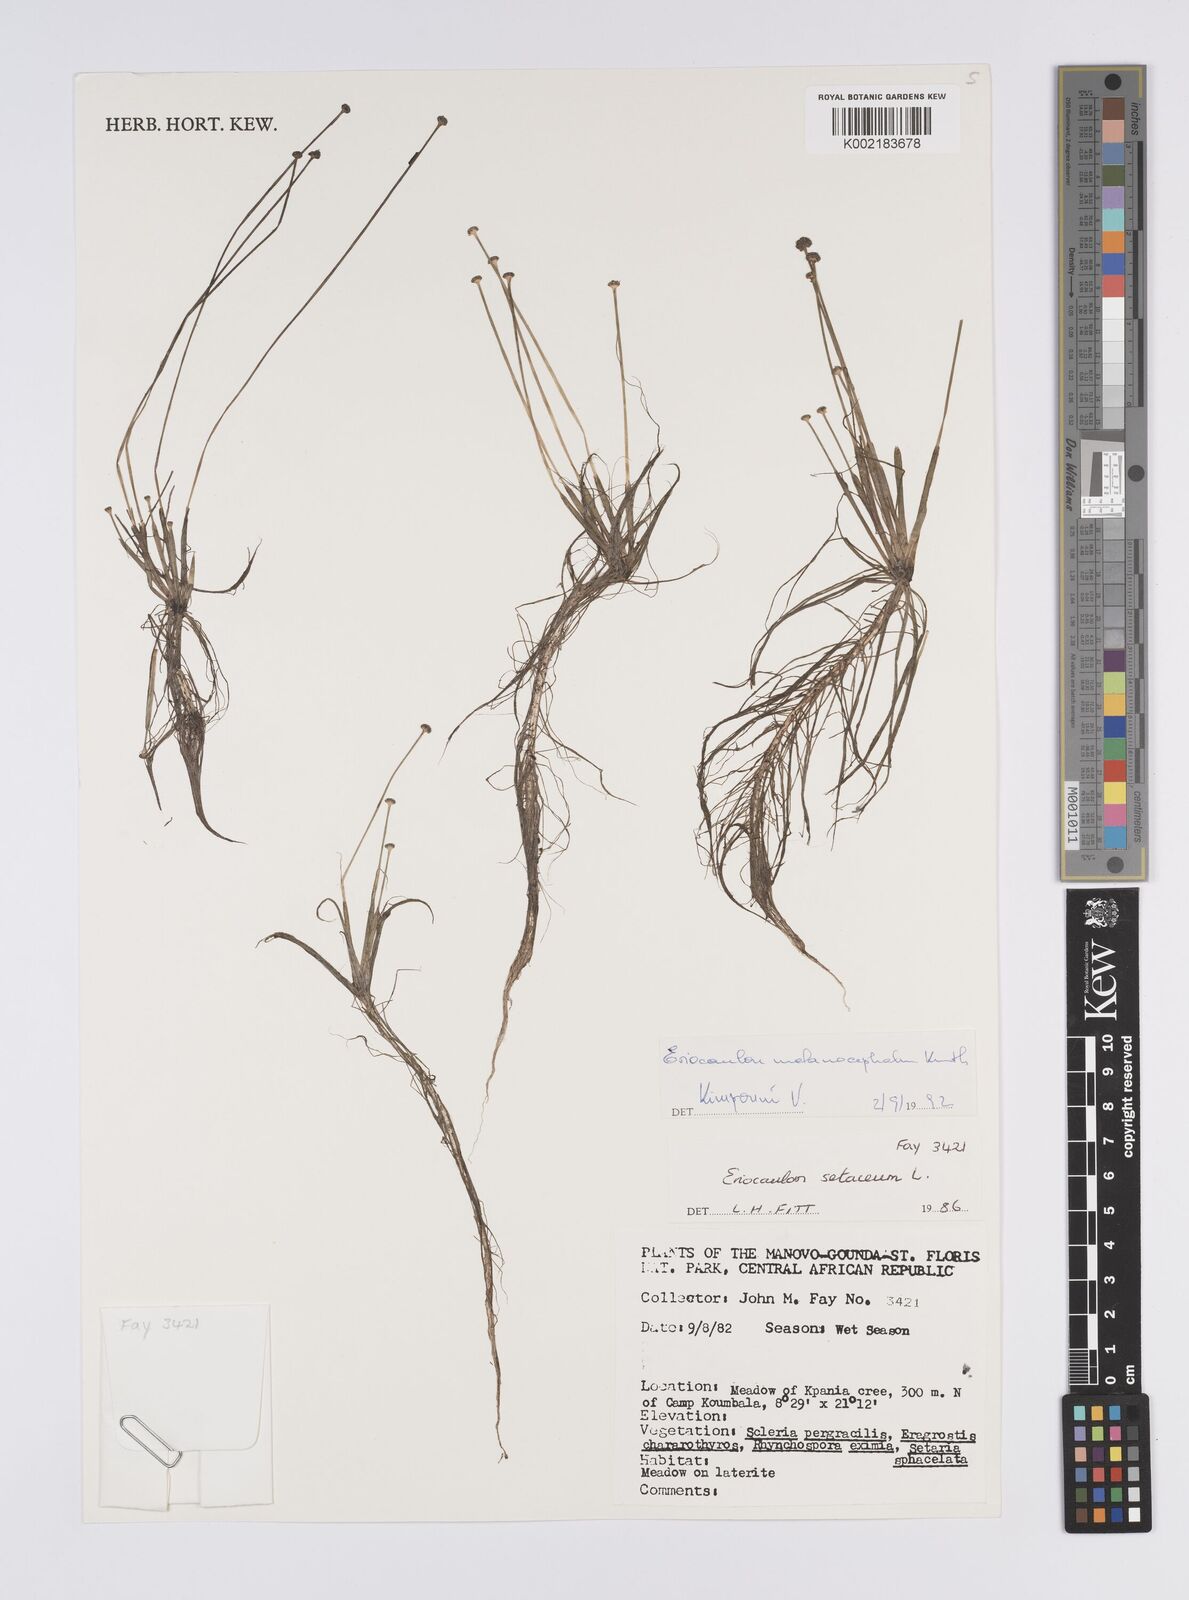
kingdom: Plantae
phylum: Tracheophyta
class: Liliopsida
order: Poales
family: Eriocaulaceae
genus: Eriocaulon
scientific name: Eriocaulon setaceum
